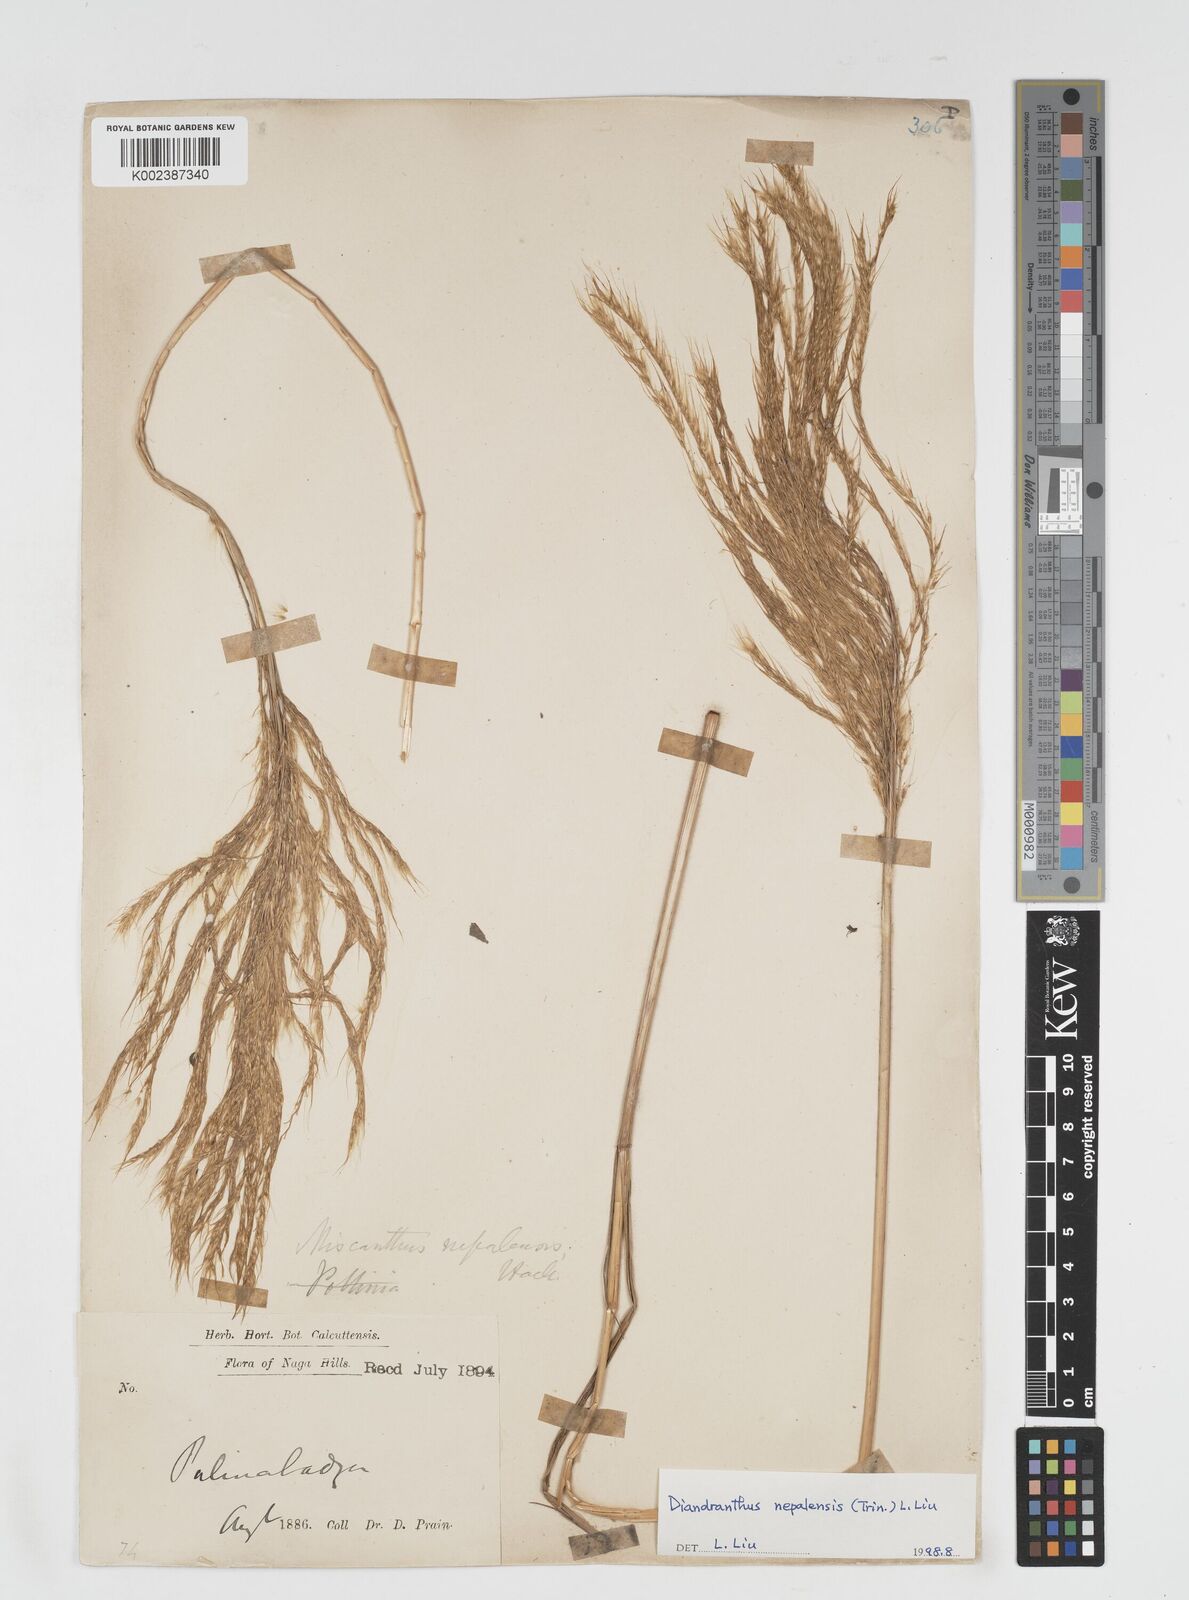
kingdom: Plantae
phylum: Tracheophyta
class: Liliopsida
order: Poales
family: Poaceae
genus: Miscanthus
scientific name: Miscanthus nepalensis
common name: Nepal silver grass
